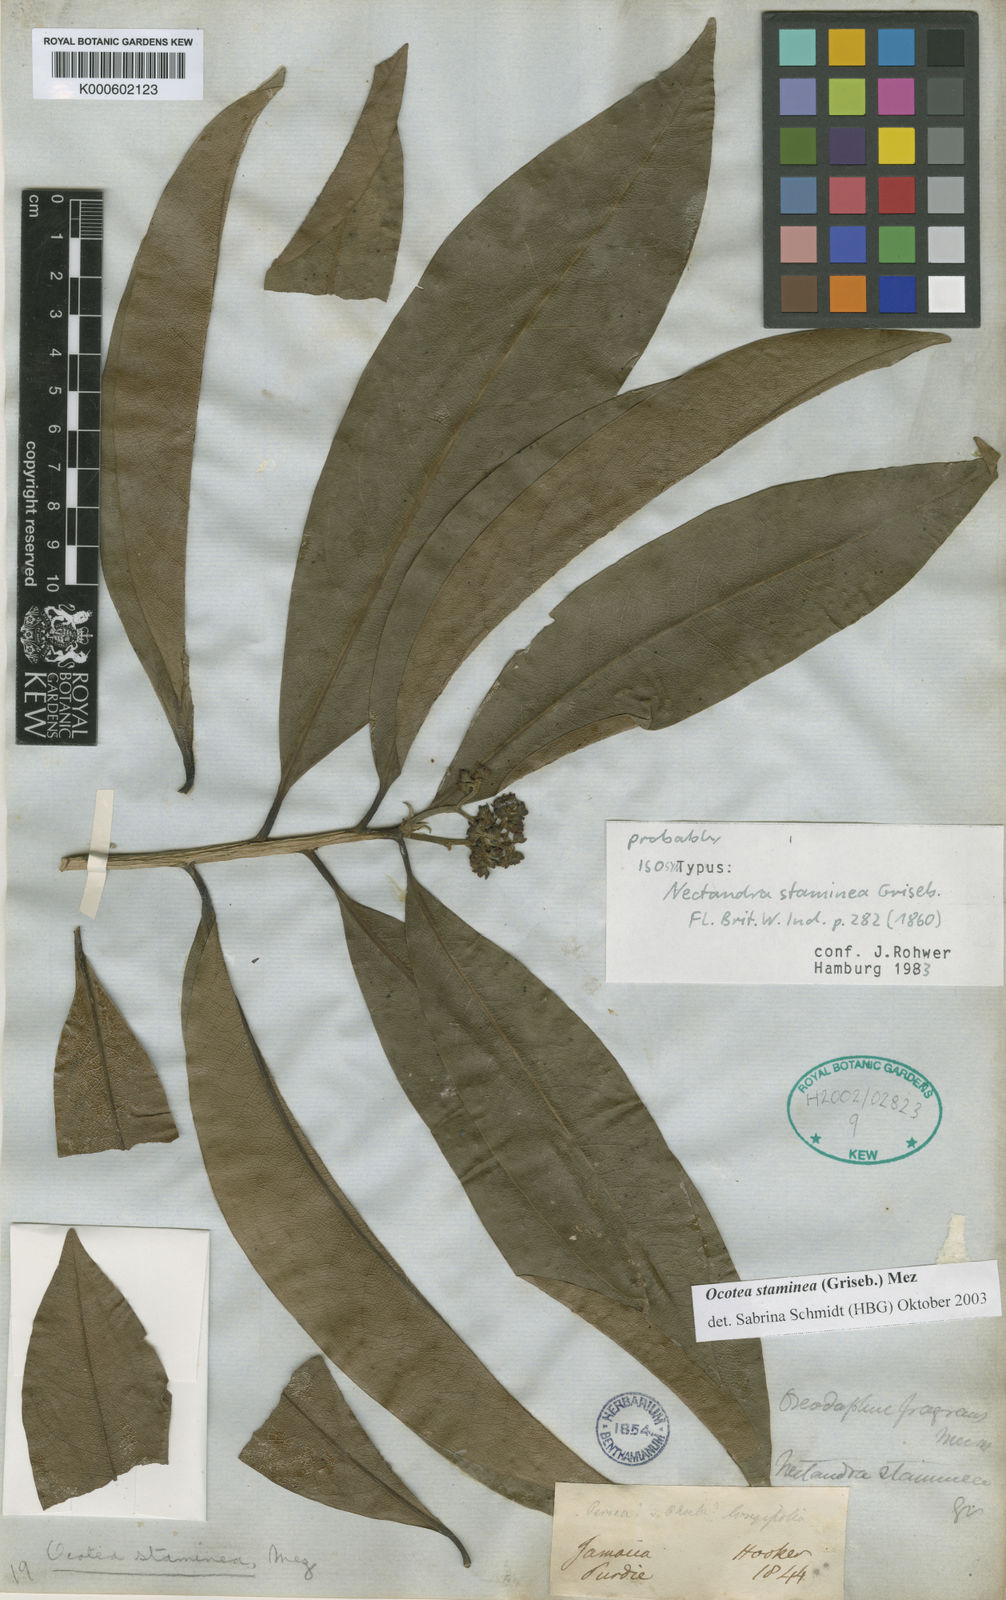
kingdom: Plantae
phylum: Tracheophyta
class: Magnoliopsida
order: Laurales
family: Lauraceae
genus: Mespilodaphne
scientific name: Mespilodaphne staminea
